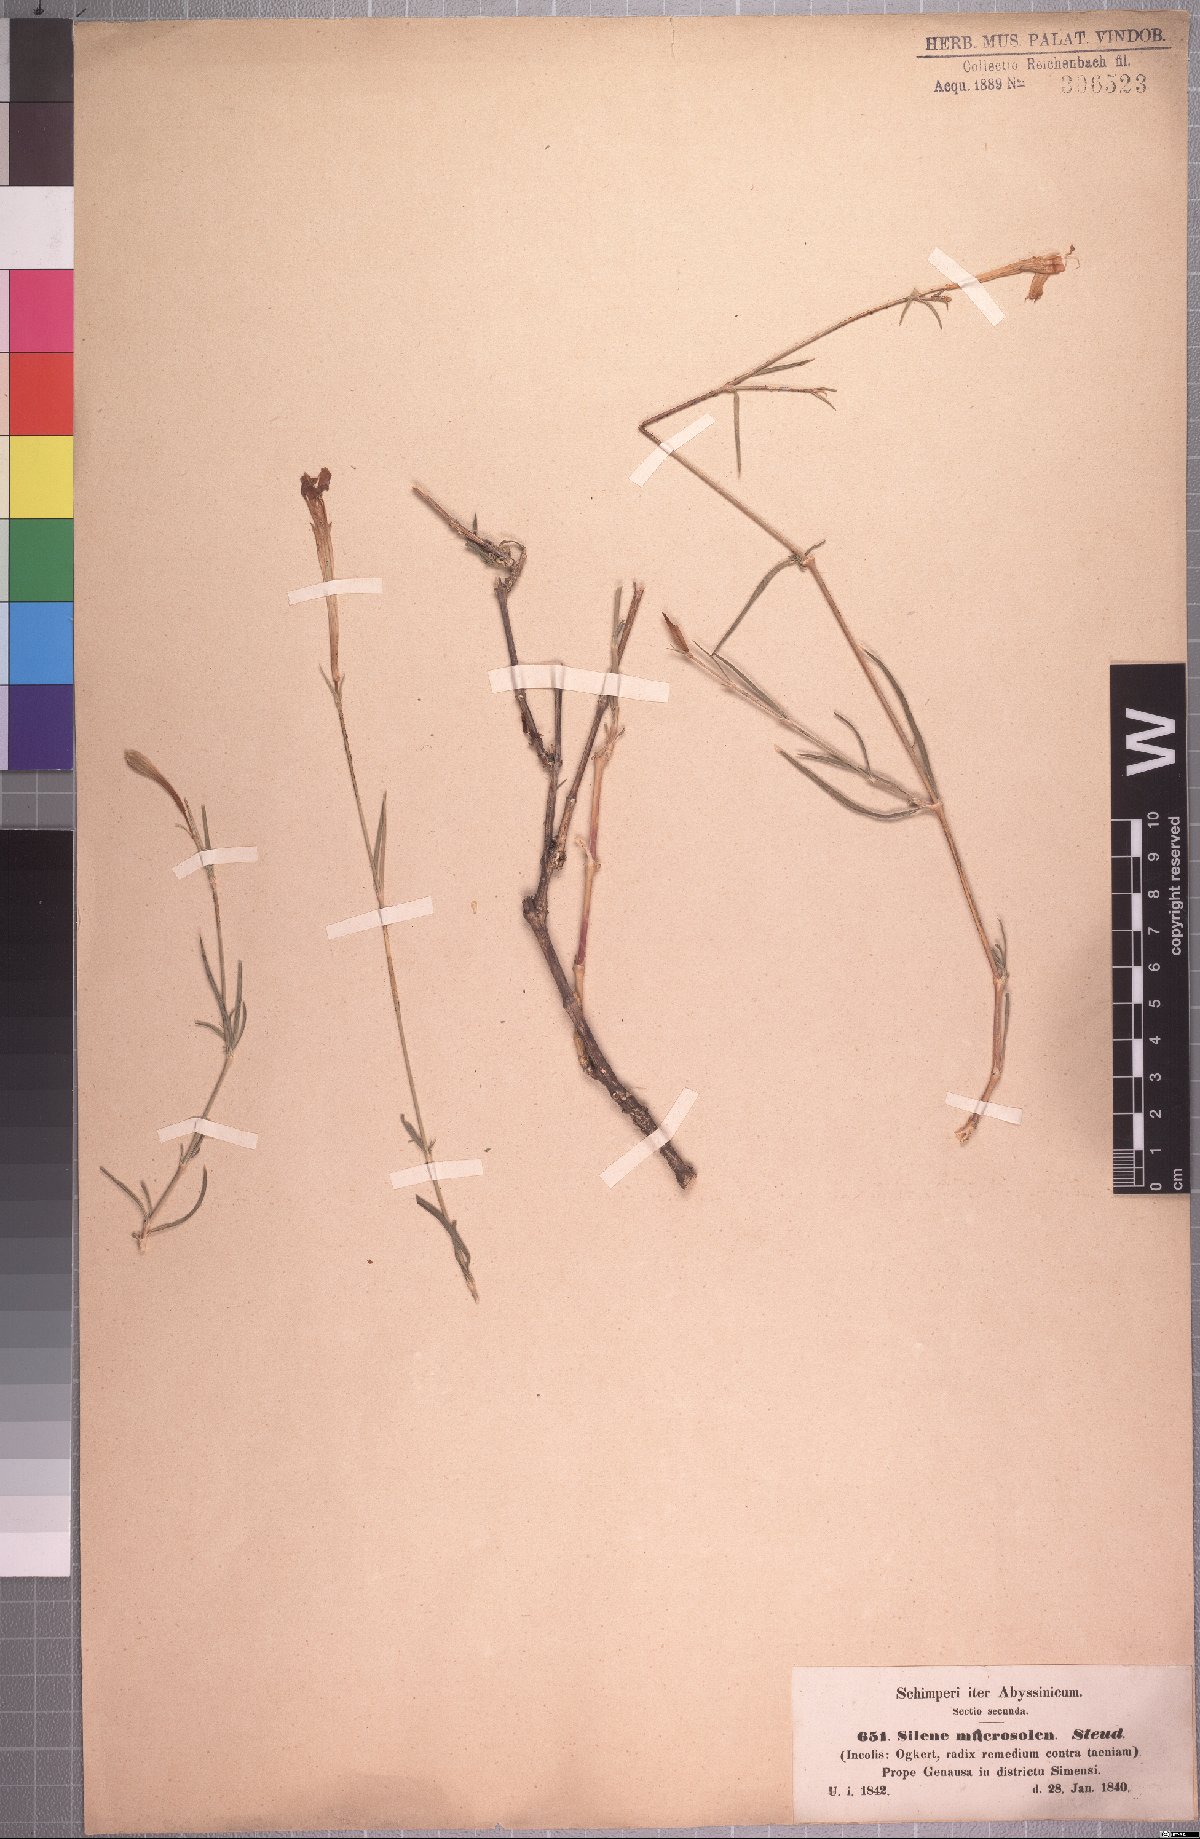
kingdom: Plantae
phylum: Tracheophyta
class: Magnoliopsida
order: Caryophyllales
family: Caryophyllaceae
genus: Silene
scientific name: Silene macrosolen
